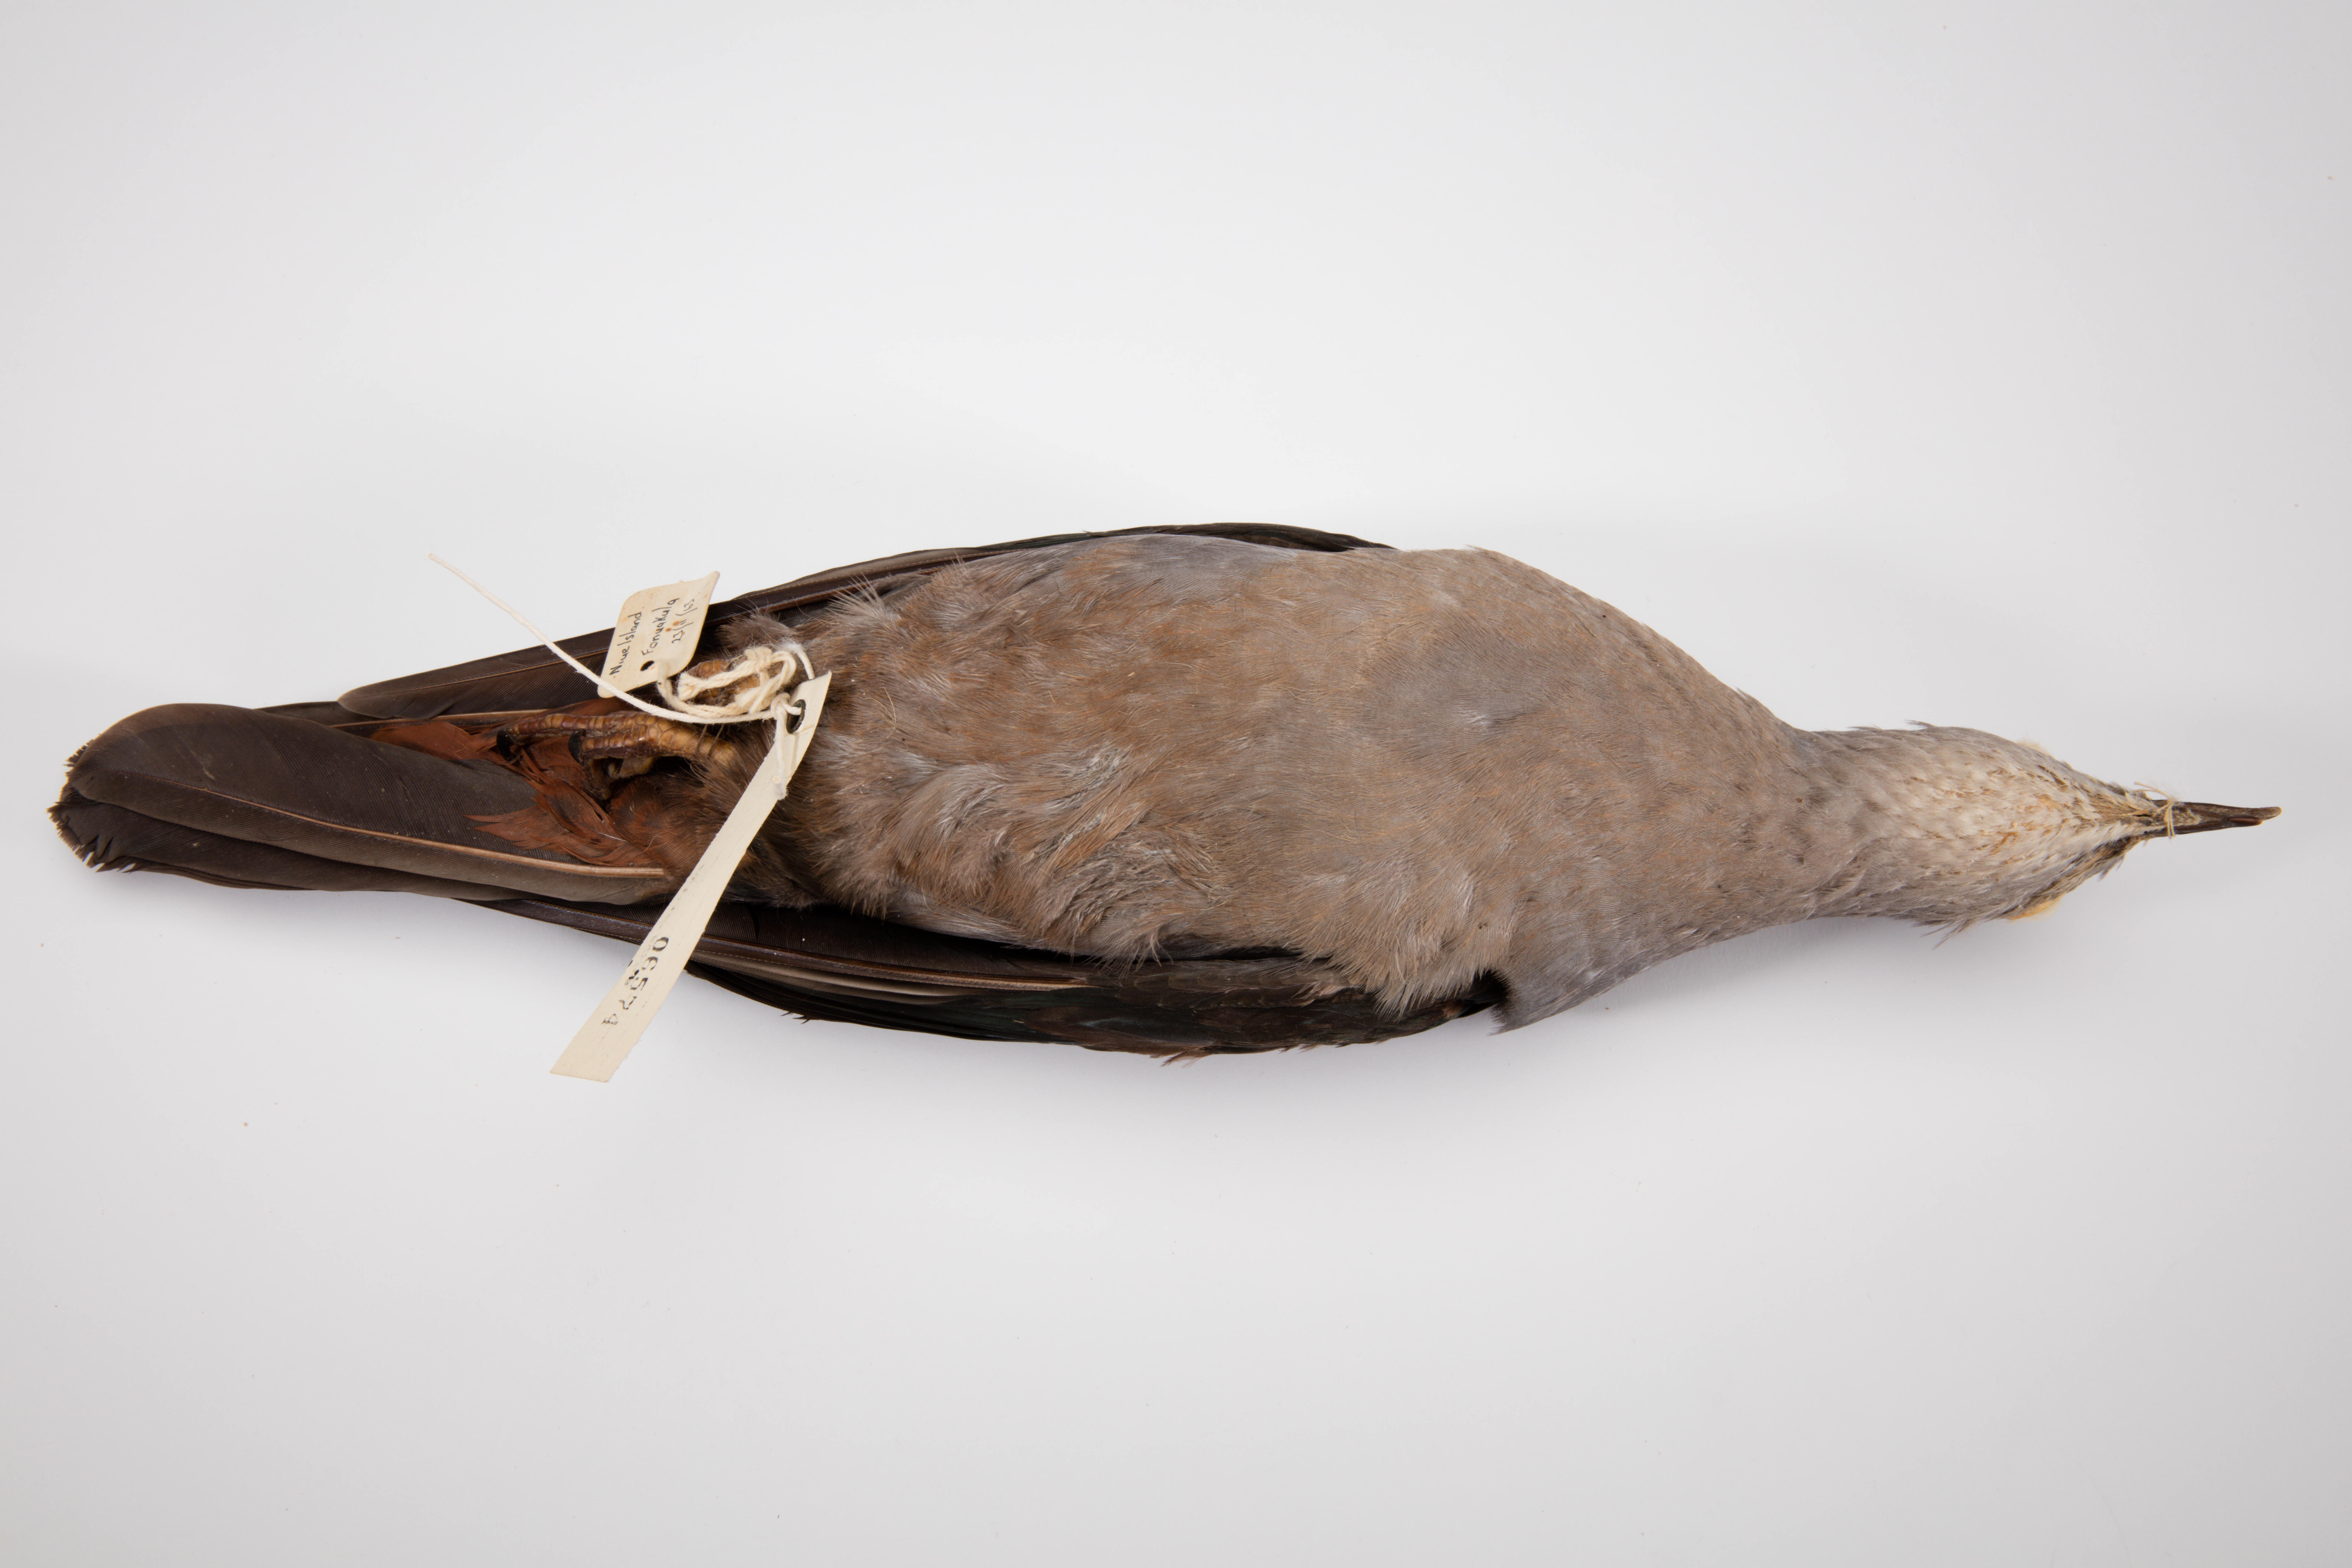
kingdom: Animalia
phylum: Chordata
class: Aves
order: Columbiformes
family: Columbidae
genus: Ducula
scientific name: Ducula pacifica
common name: Pacific imperial-pigeon
